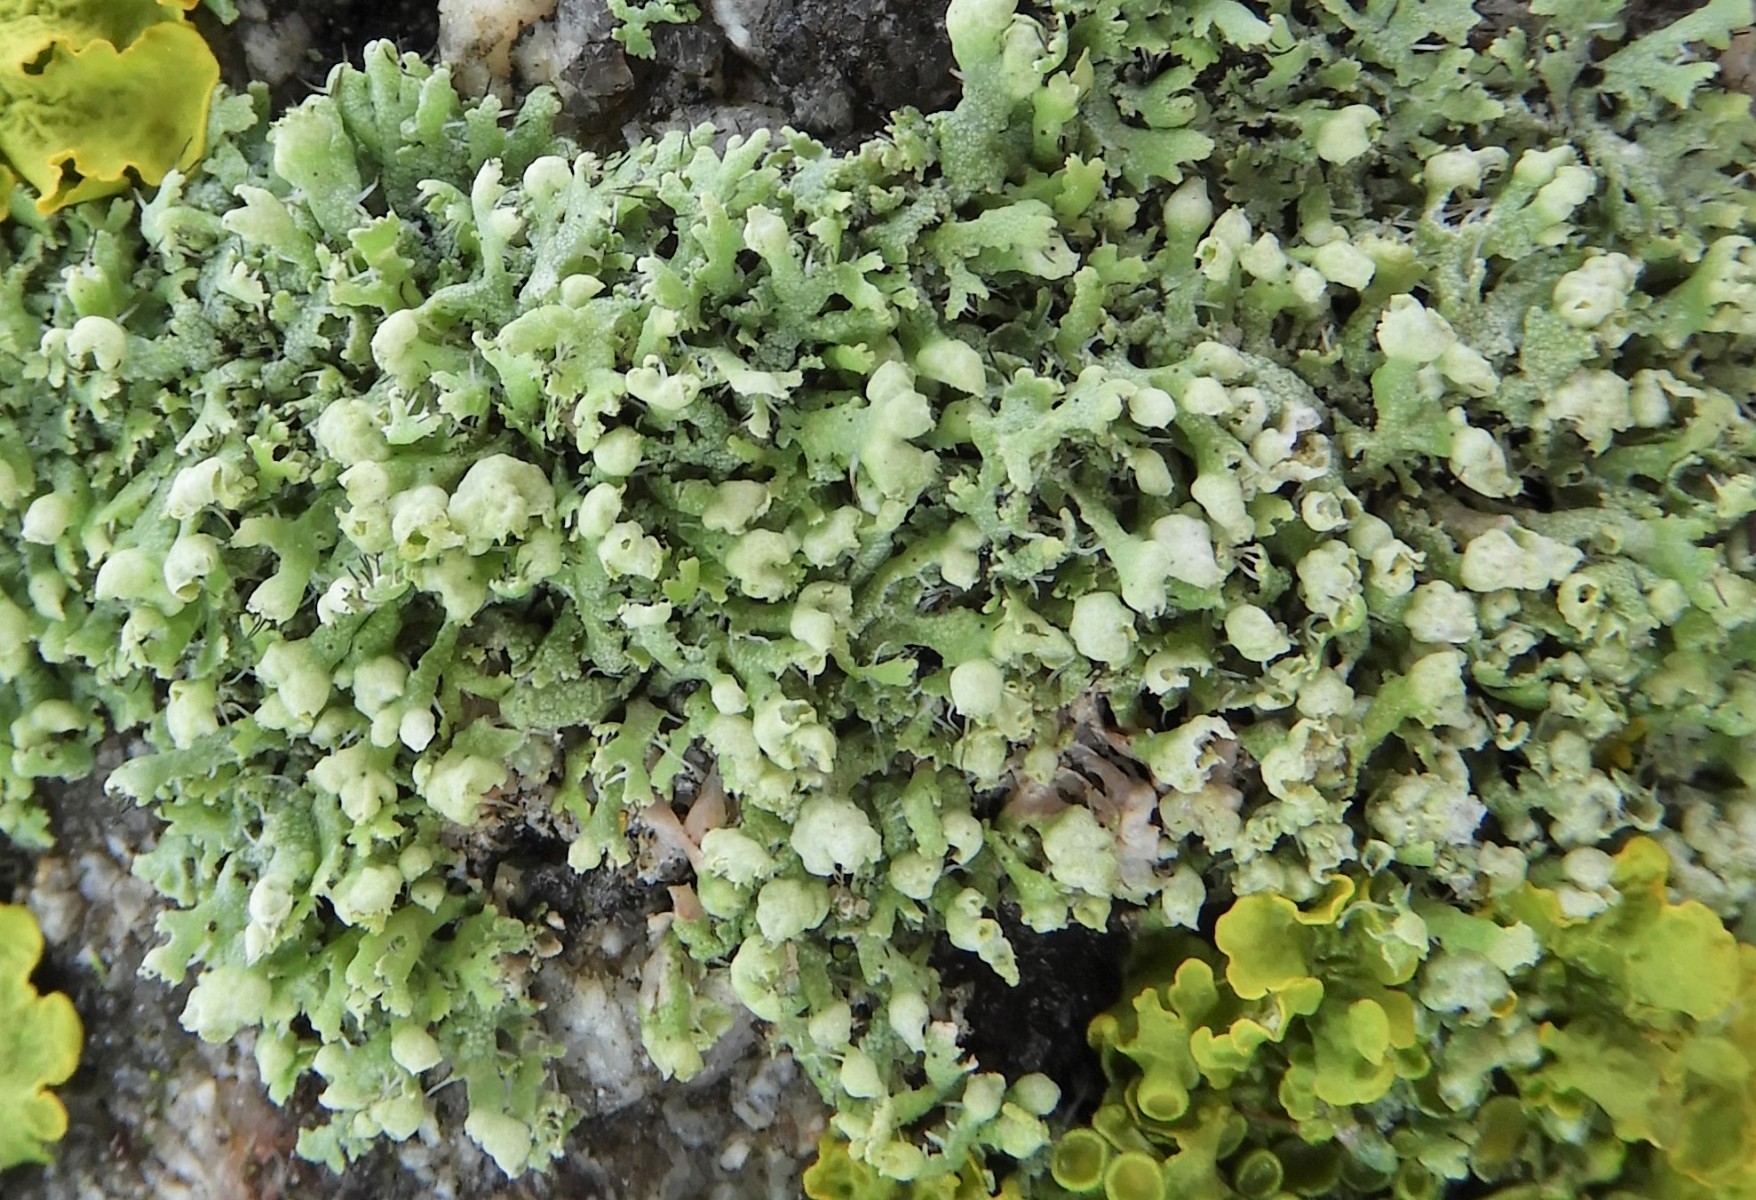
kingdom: Fungi
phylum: Ascomycota
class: Lecanoromycetes
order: Caliciales
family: Physciaceae
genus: Physcia
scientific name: Physcia adscendens
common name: hætte-rosetlav
